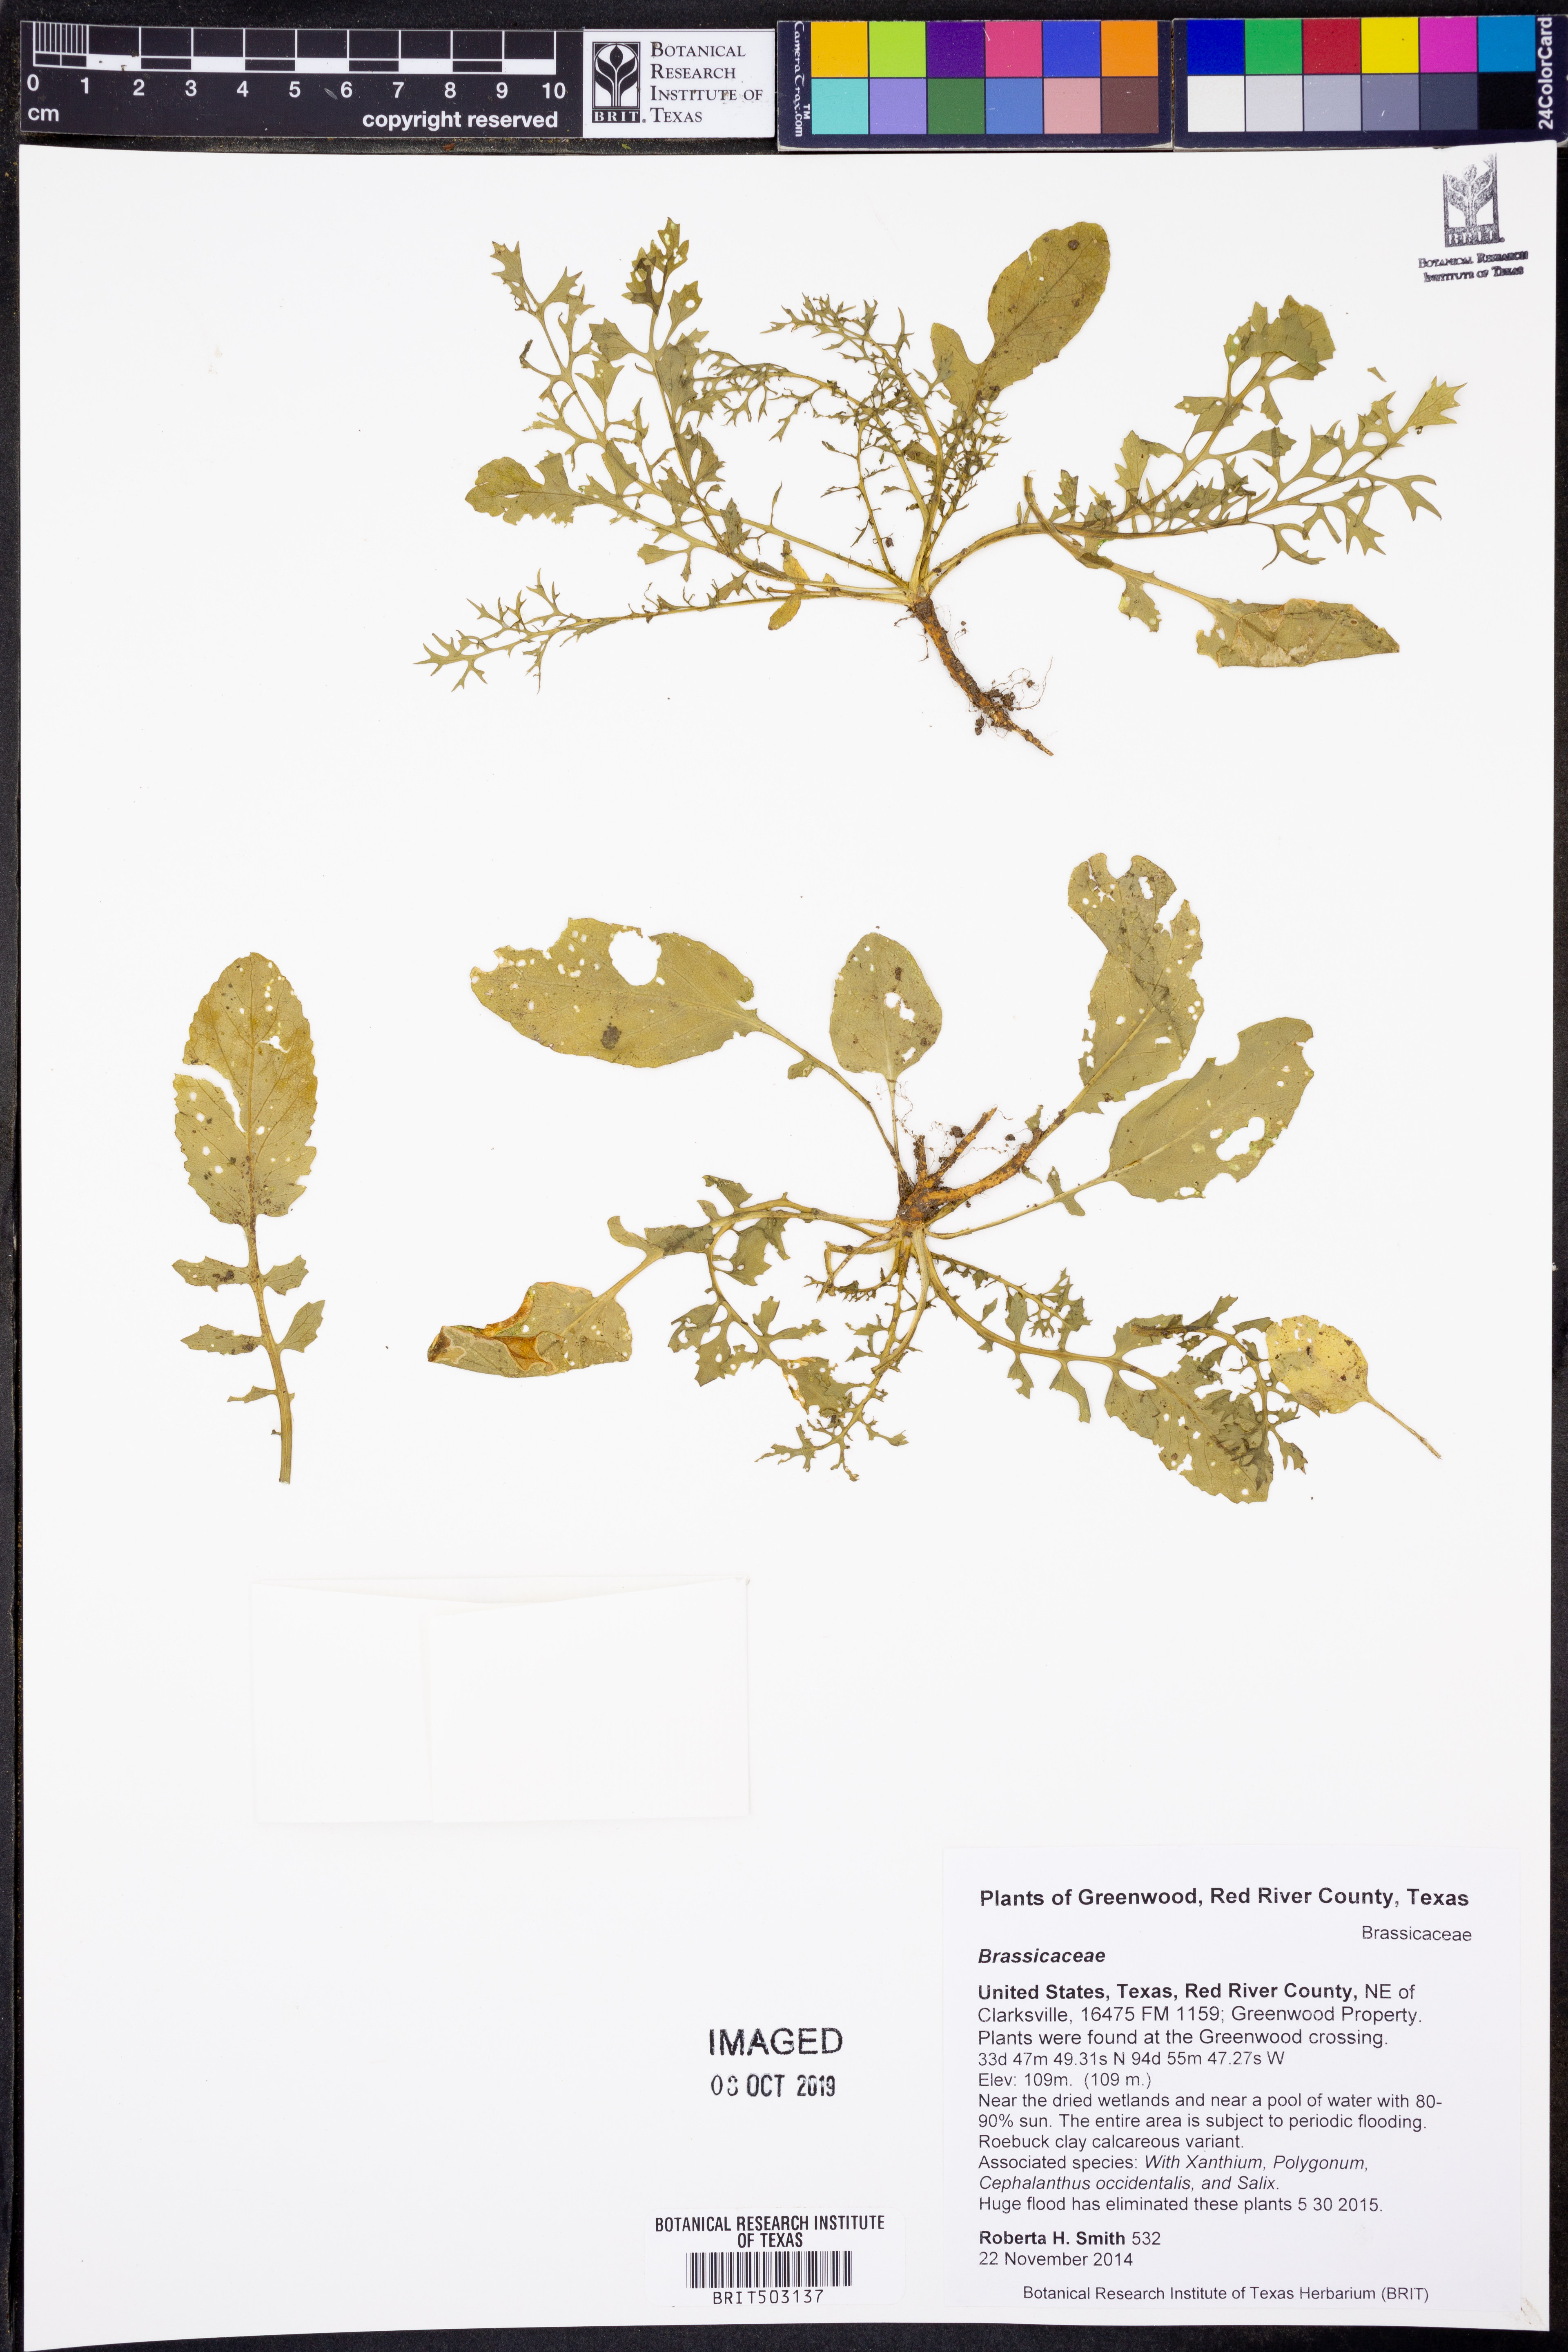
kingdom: Plantae
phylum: Tracheophyta
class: Magnoliopsida
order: Brassicales
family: Brassicaceae
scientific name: Brassicaceae
